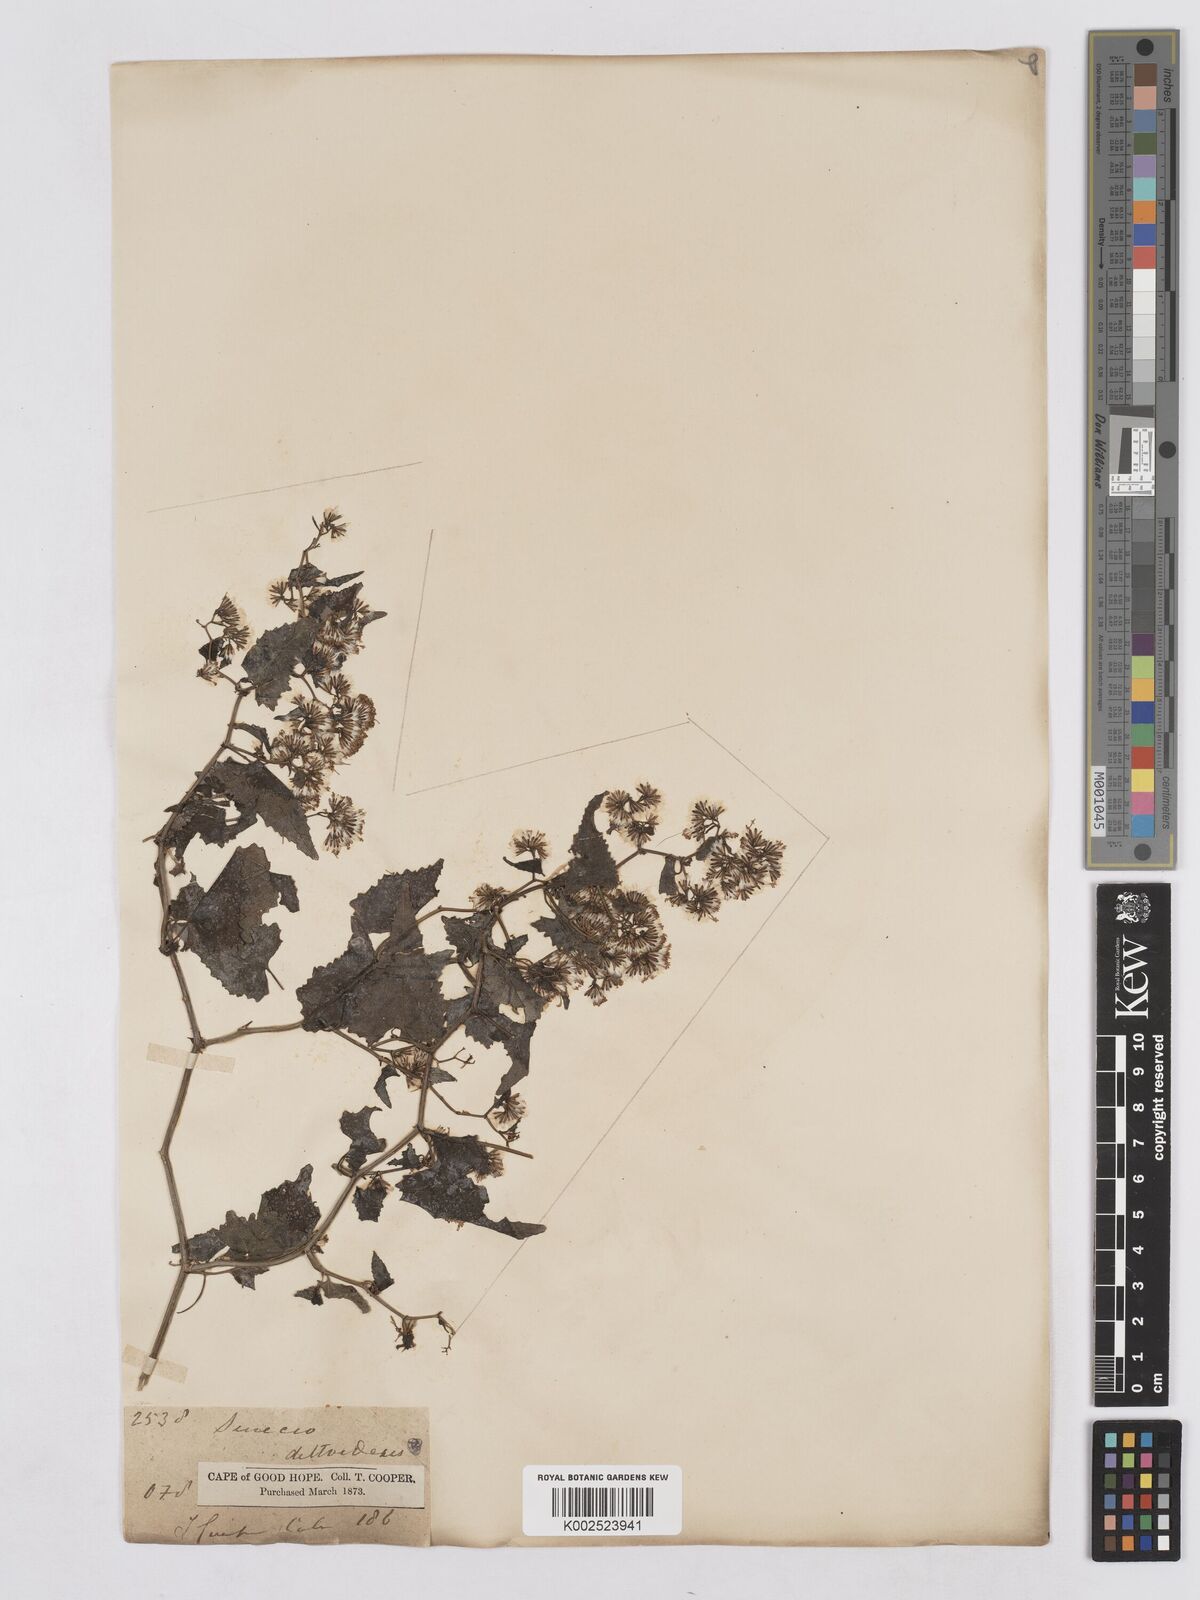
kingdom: Plantae
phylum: Tracheophyta
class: Magnoliopsida
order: Asterales
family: Asteraceae
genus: Senecio
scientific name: Senecio deltoideus
